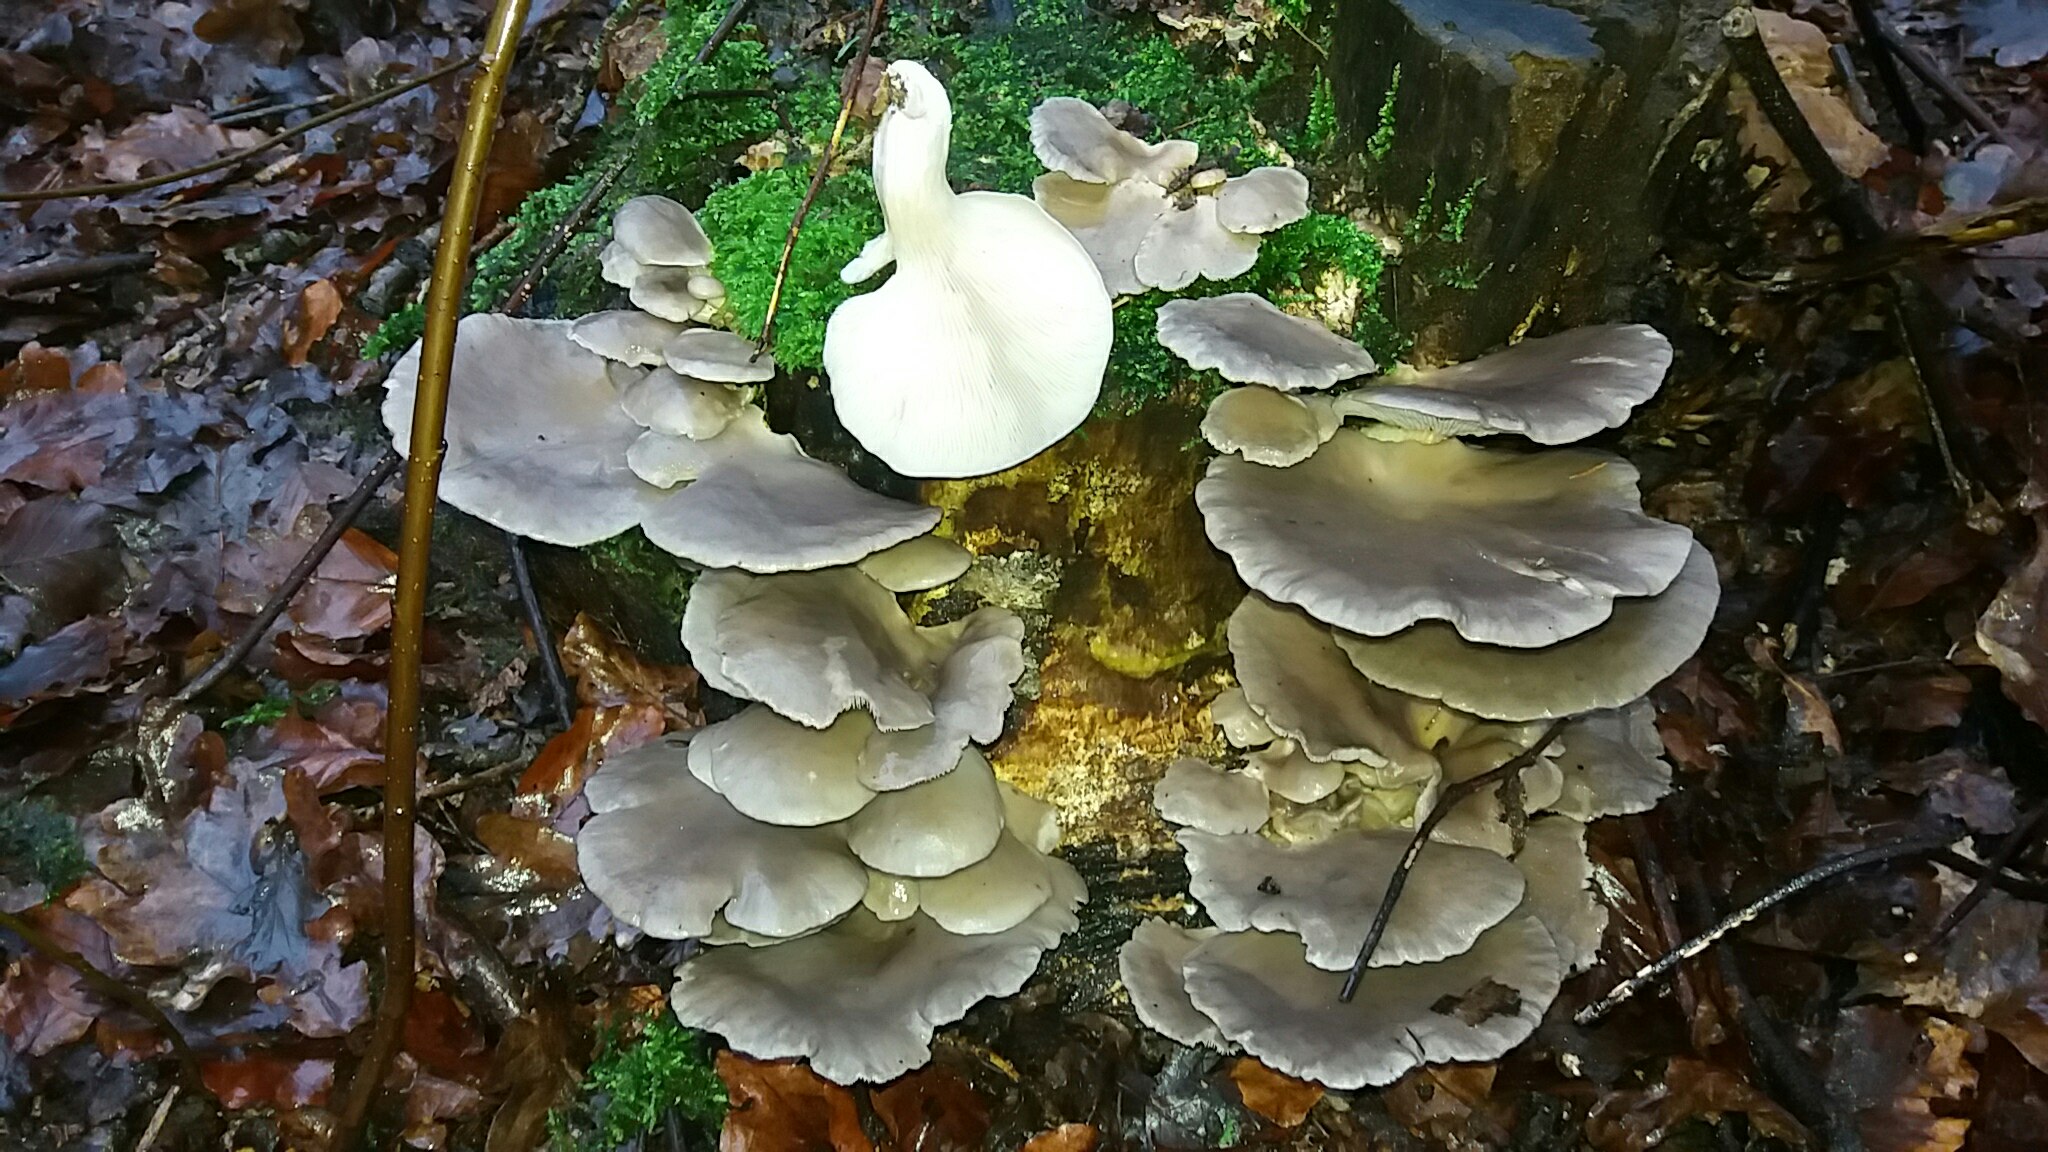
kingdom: Fungi
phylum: Basidiomycota
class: Agaricomycetes
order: Agaricales
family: Pleurotaceae
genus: Pleurotus
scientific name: Pleurotus ostreatus
